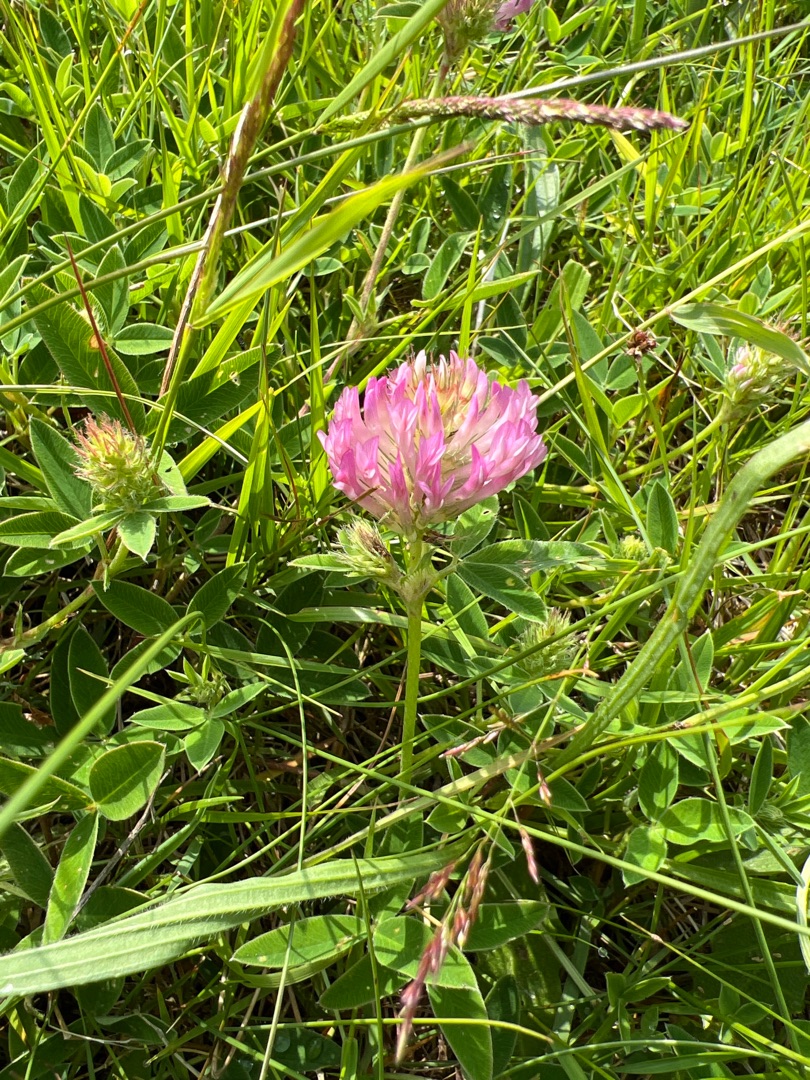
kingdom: Plantae
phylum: Tracheophyta
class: Magnoliopsida
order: Fabales
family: Fabaceae
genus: Trifolium
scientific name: Trifolium medium
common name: Bugtet kløver
